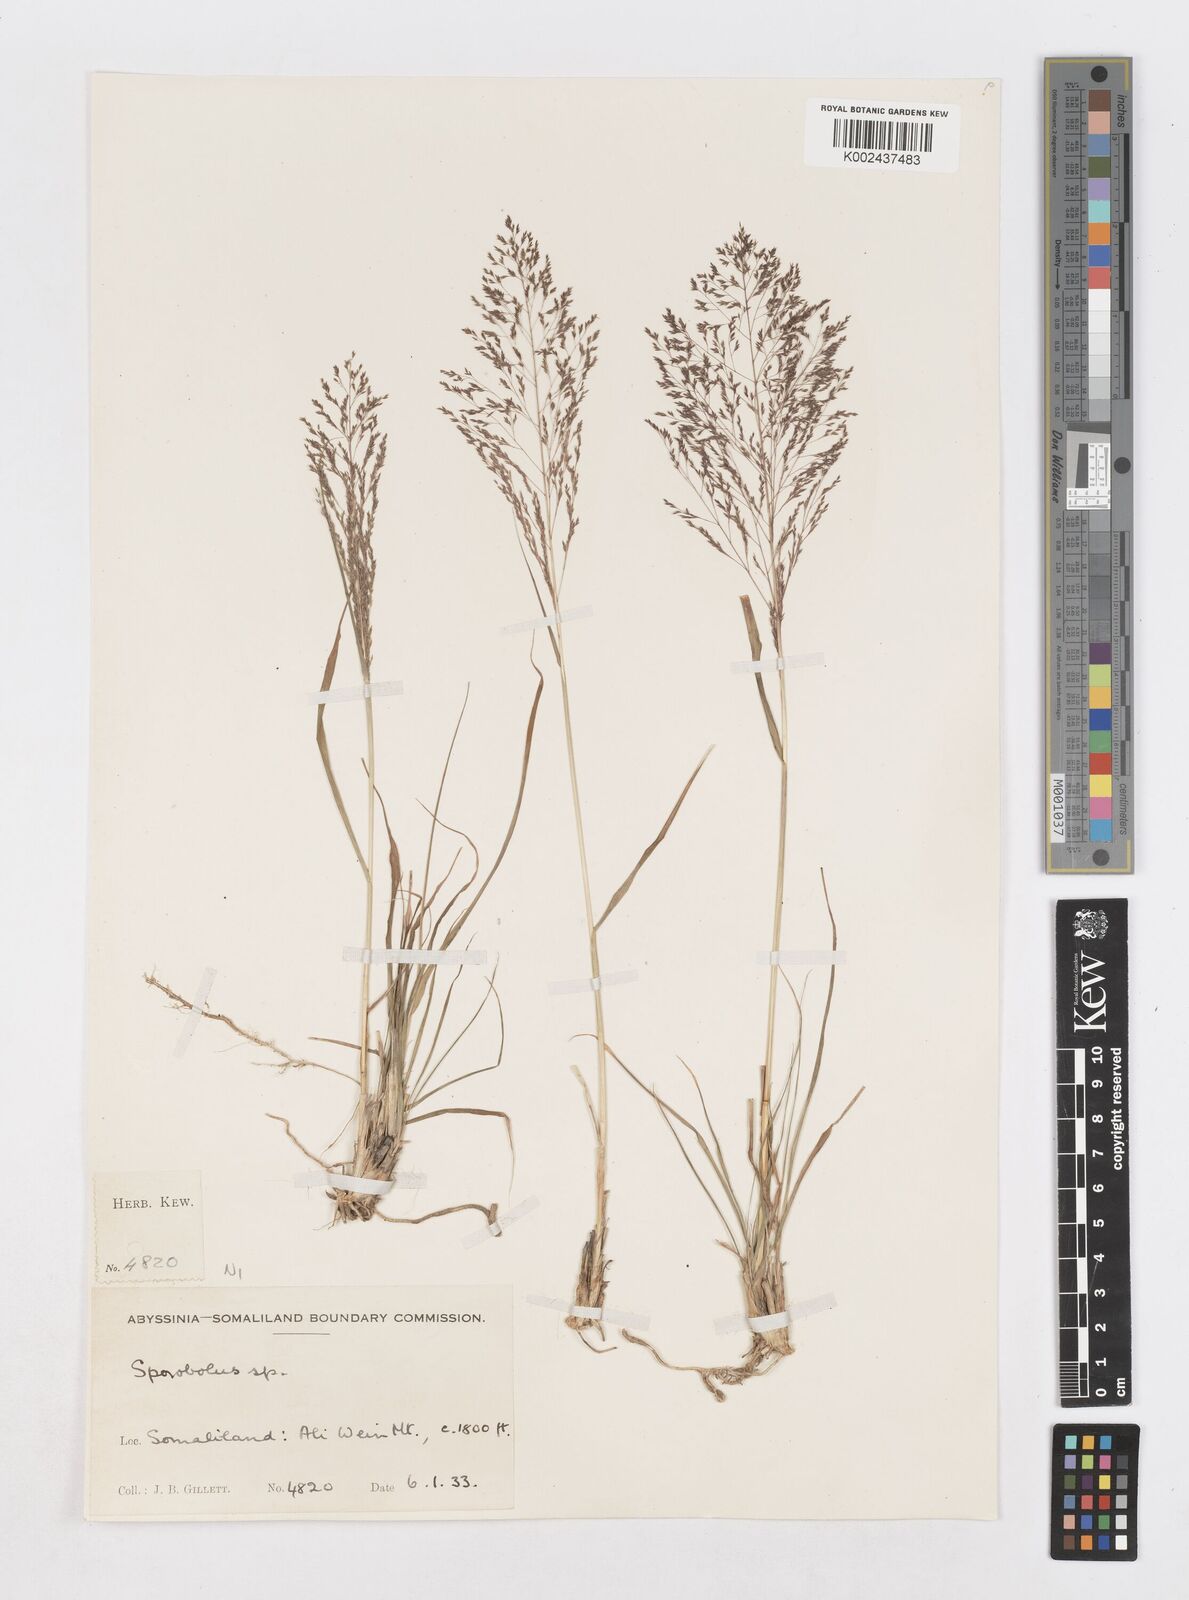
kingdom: Plantae
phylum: Tracheophyta
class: Liliopsida
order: Poales
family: Poaceae
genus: Sporobolus
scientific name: Sporobolus nervosus
